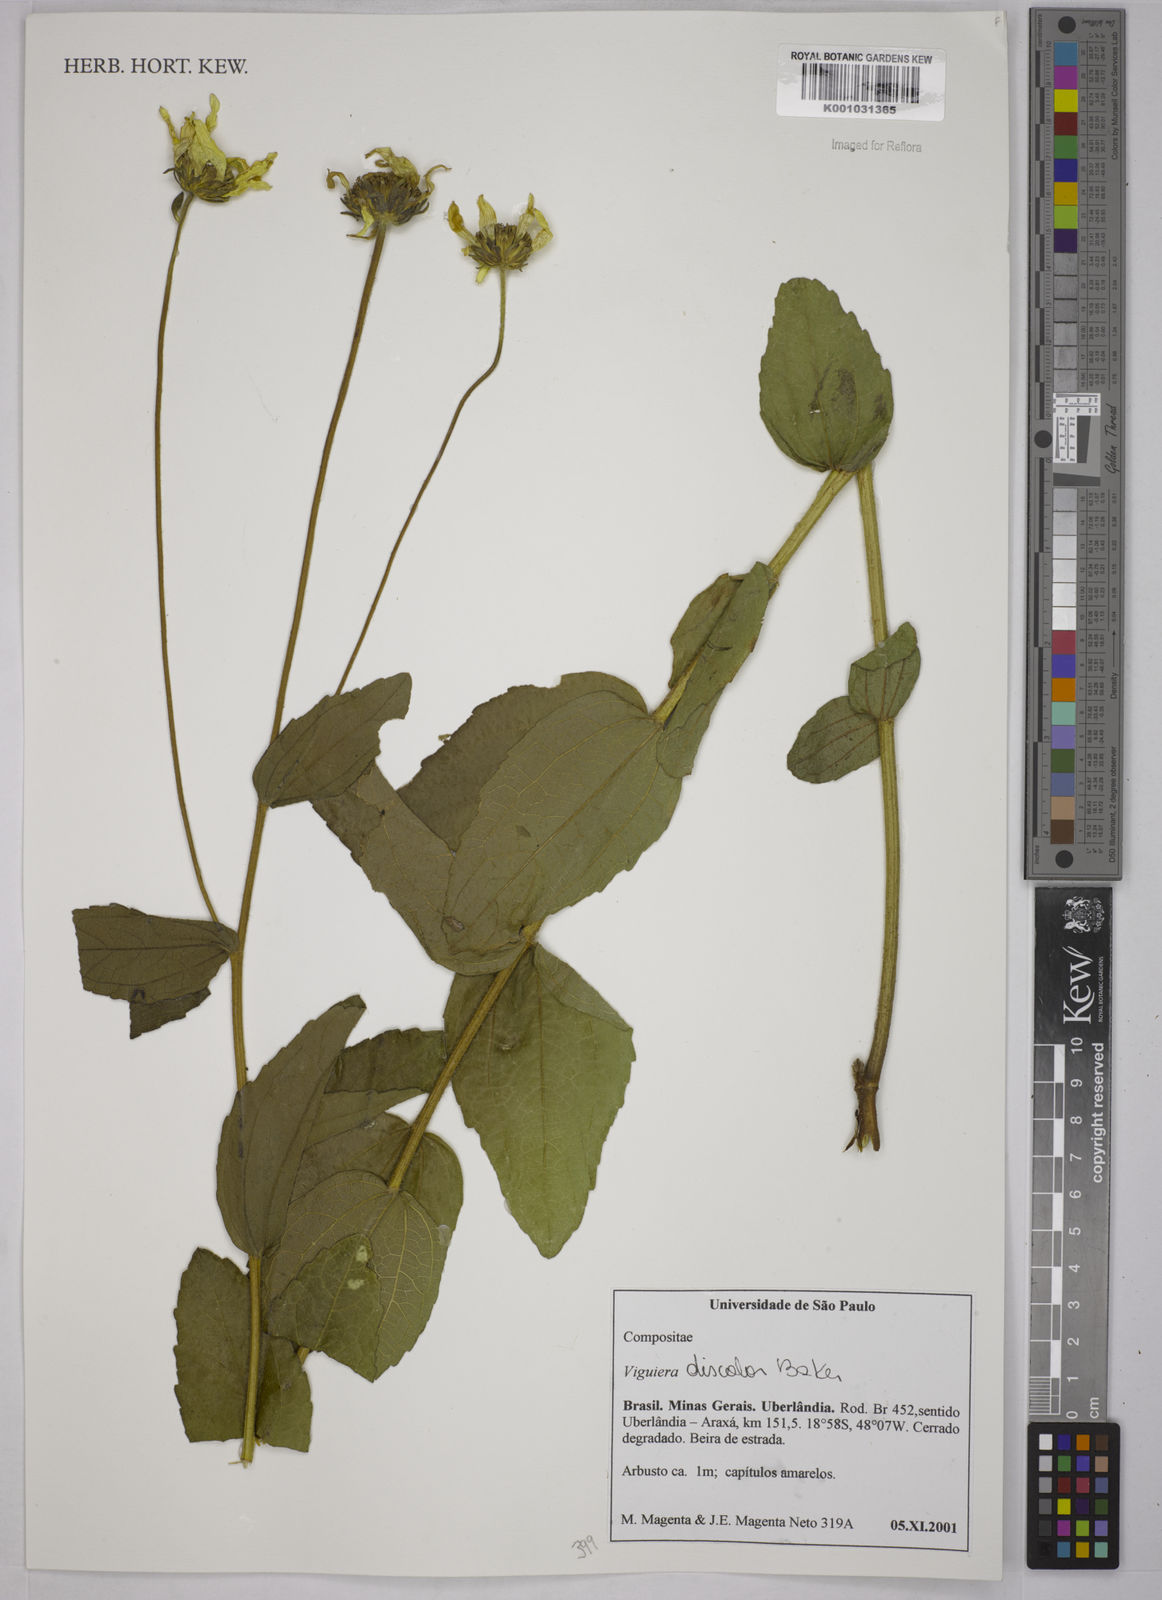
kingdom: Plantae
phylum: Tracheophyta
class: Magnoliopsida
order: Asterales
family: Asteraceae
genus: Aldama
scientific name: Aldama discolor
